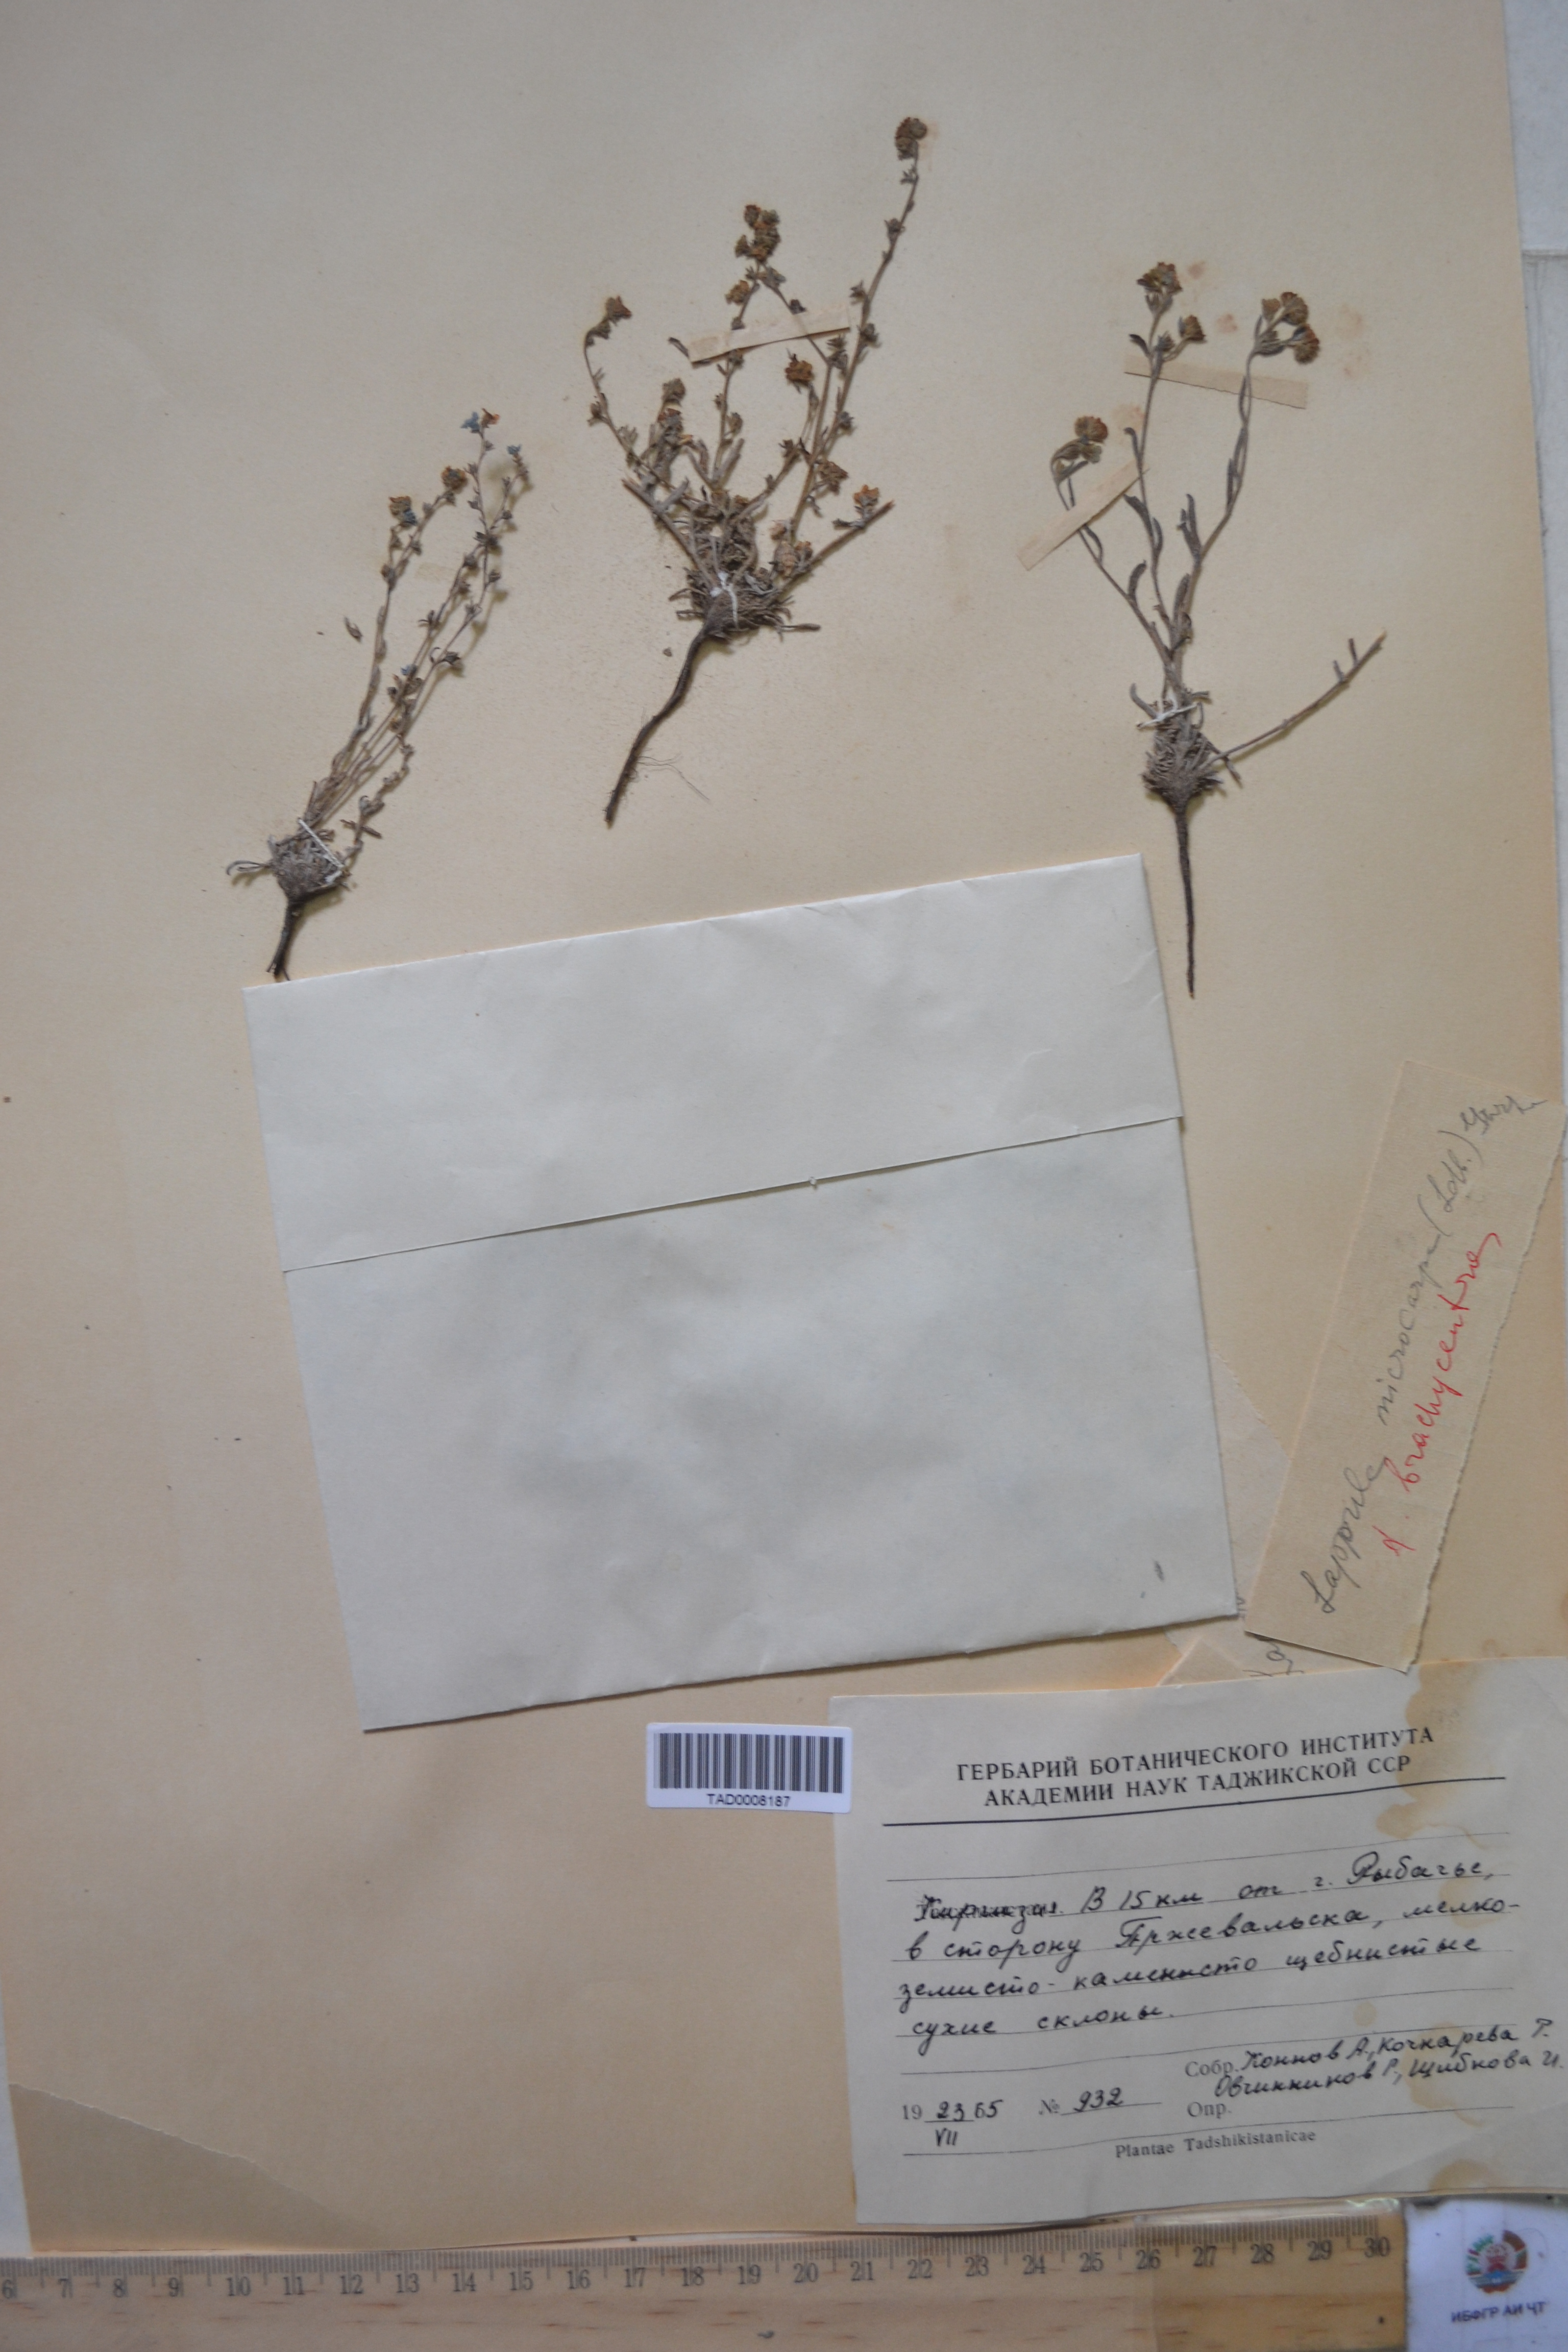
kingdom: Plantae
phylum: Tracheophyta
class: Magnoliopsida
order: Boraginales
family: Boraginaceae
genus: Lappula
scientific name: Lappula microcarpa
